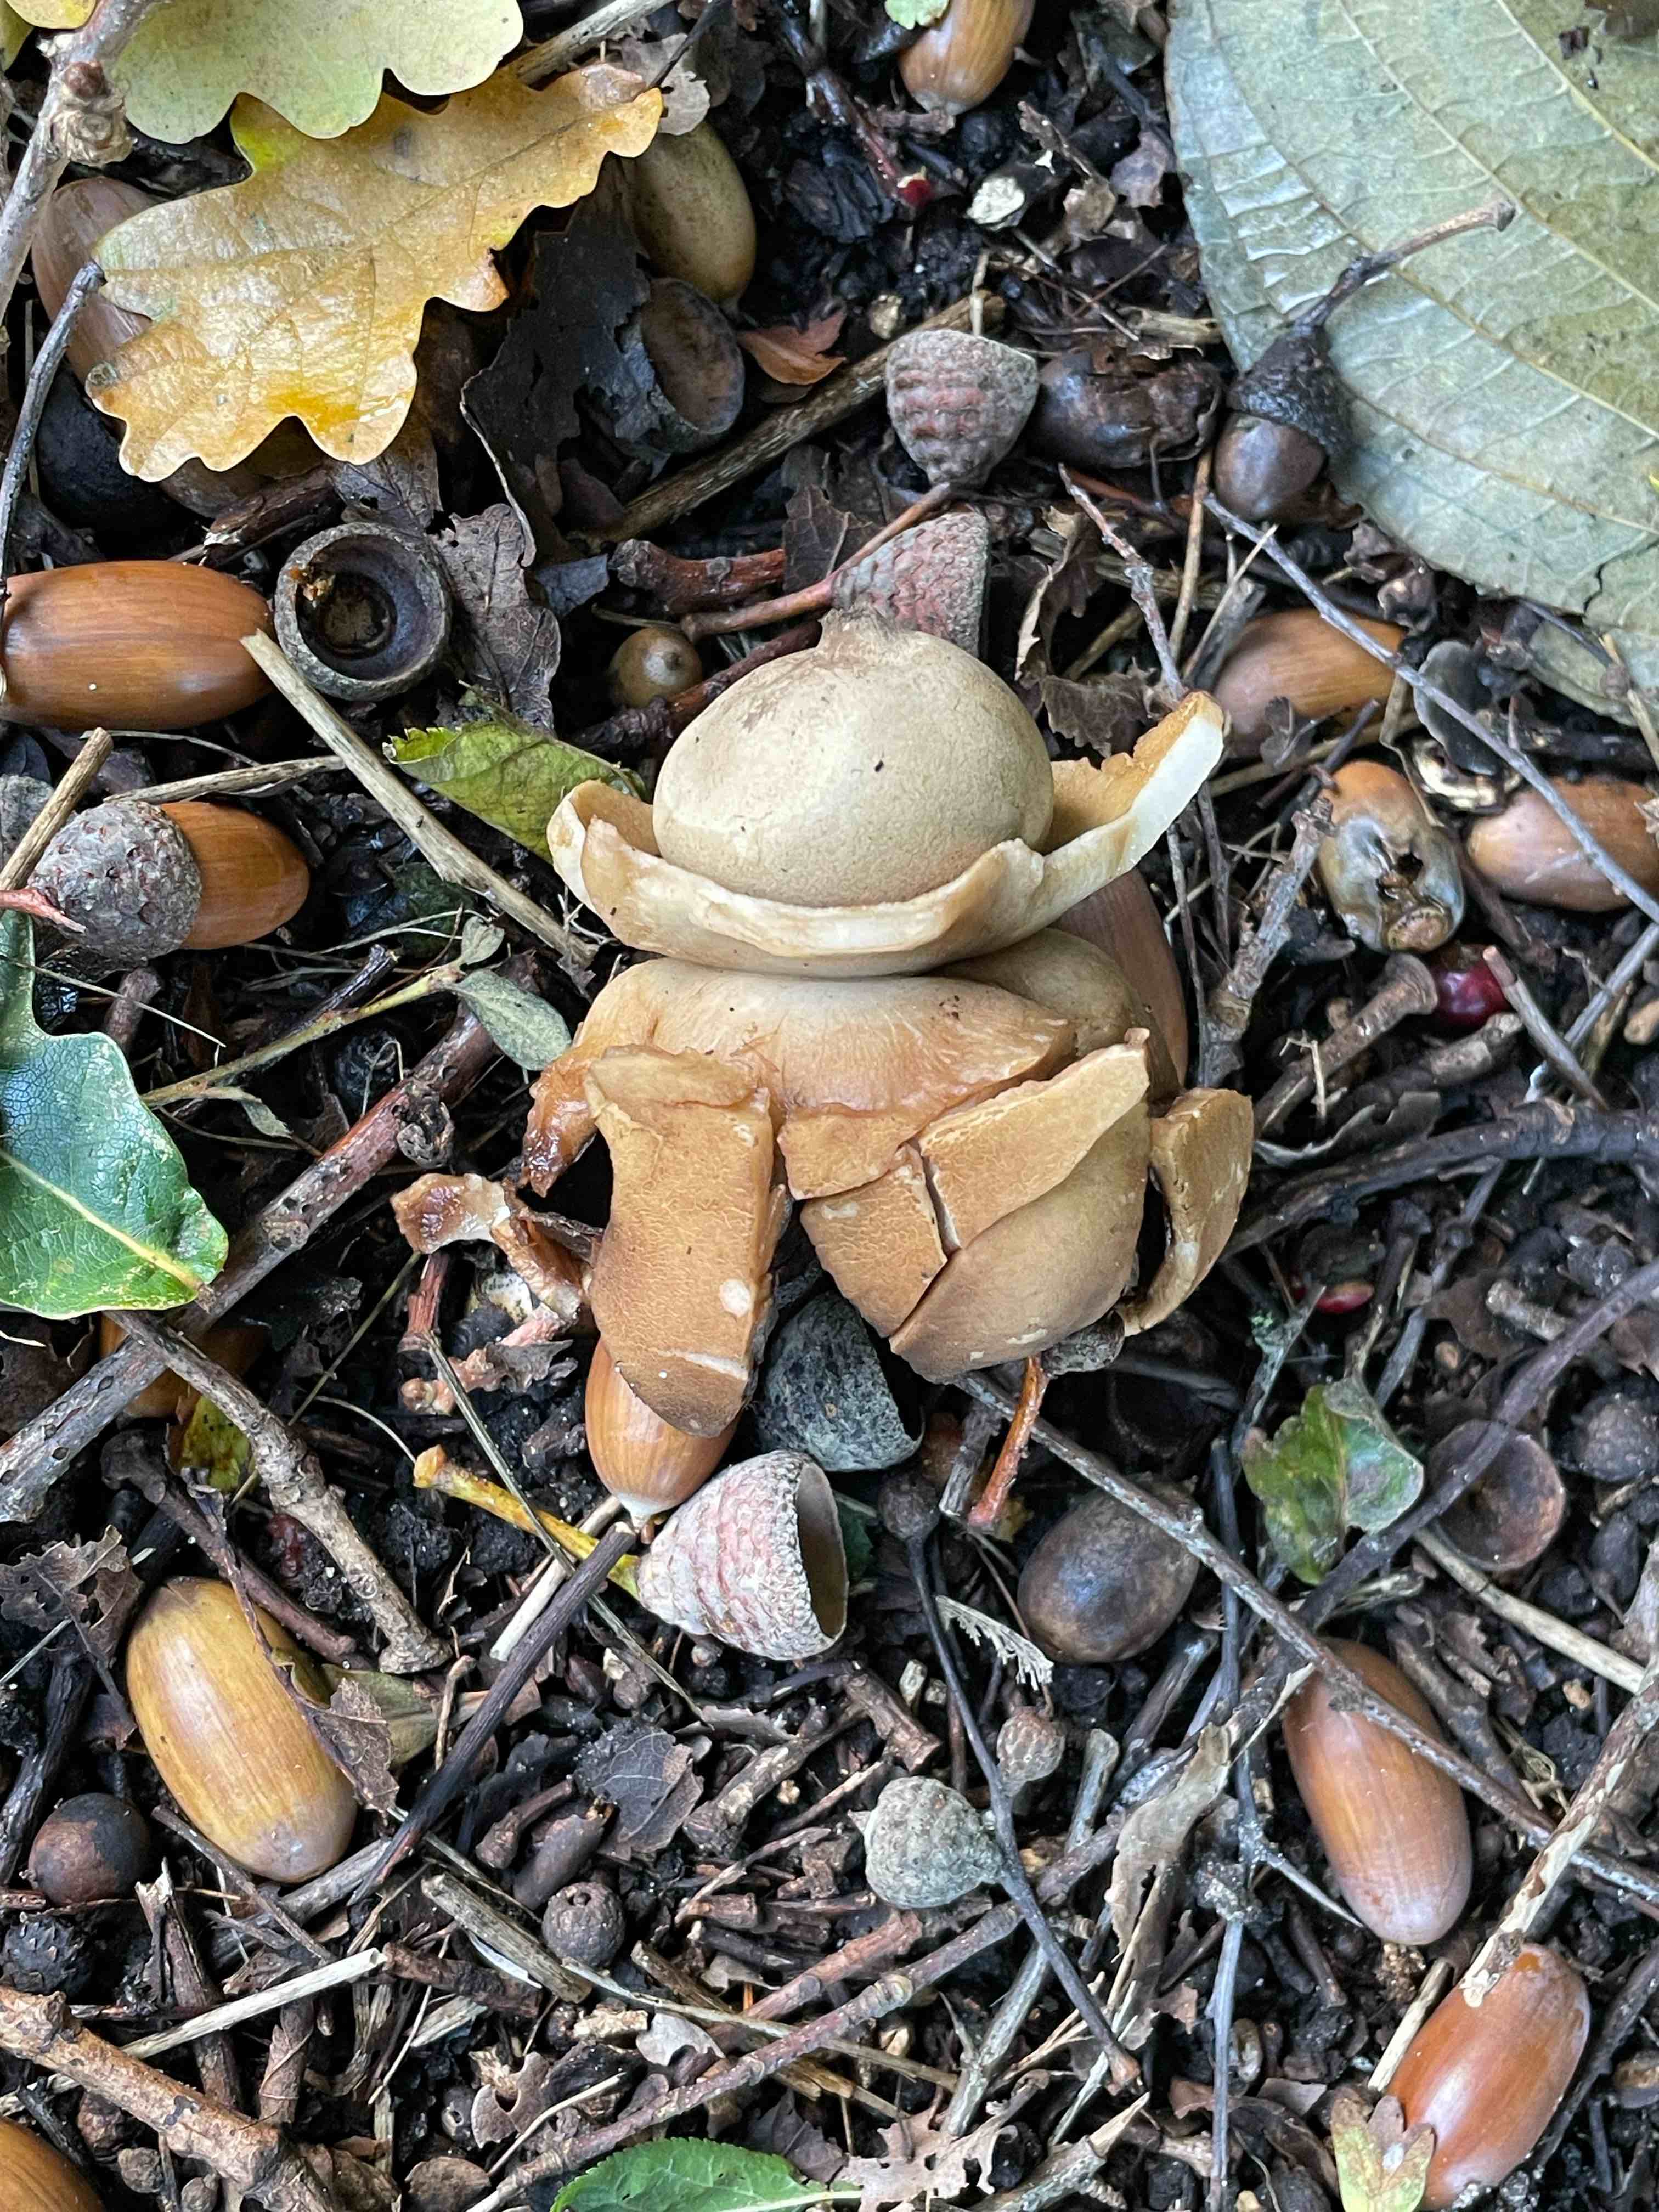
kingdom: Fungi
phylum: Basidiomycota
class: Agaricomycetes
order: Geastrales
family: Geastraceae
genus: Geastrum
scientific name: Geastrum michelianum
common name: kødet stjernebold
